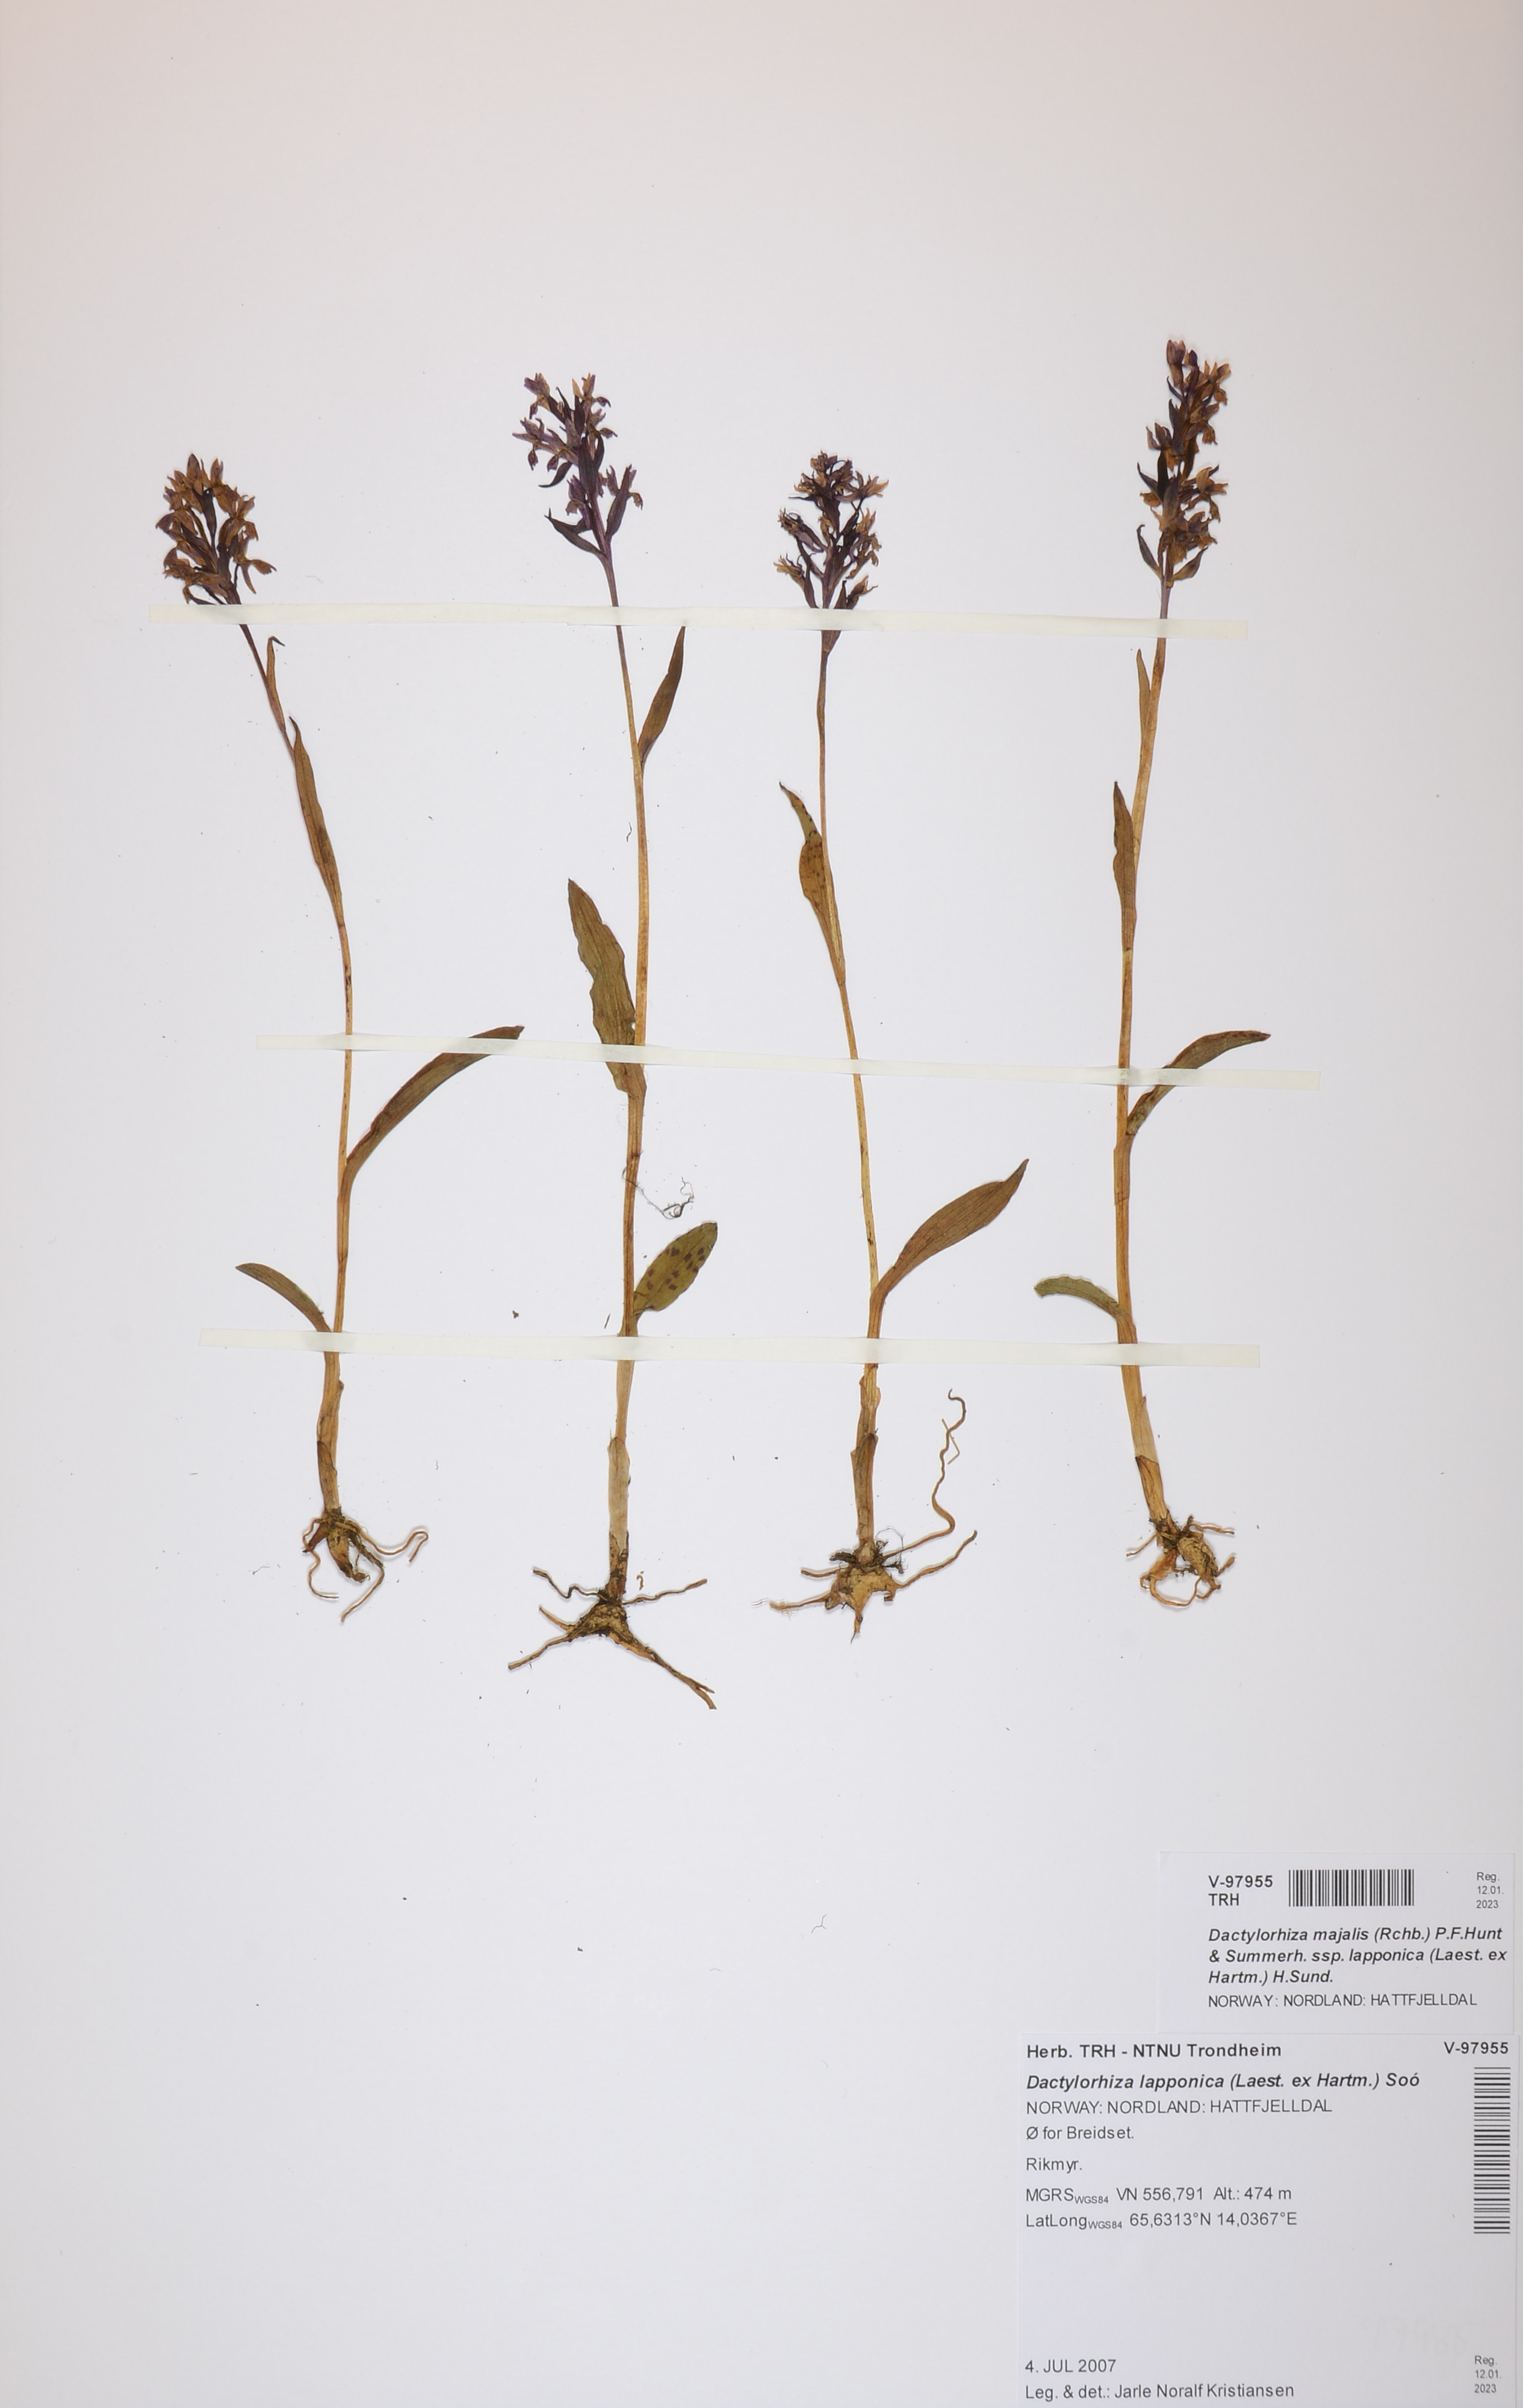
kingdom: Plantae
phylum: Tracheophyta
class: Liliopsida
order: Asparagales
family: Orchidaceae
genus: Dactylorhiza
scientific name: Dactylorhiza majalis
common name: Marsh orchid
